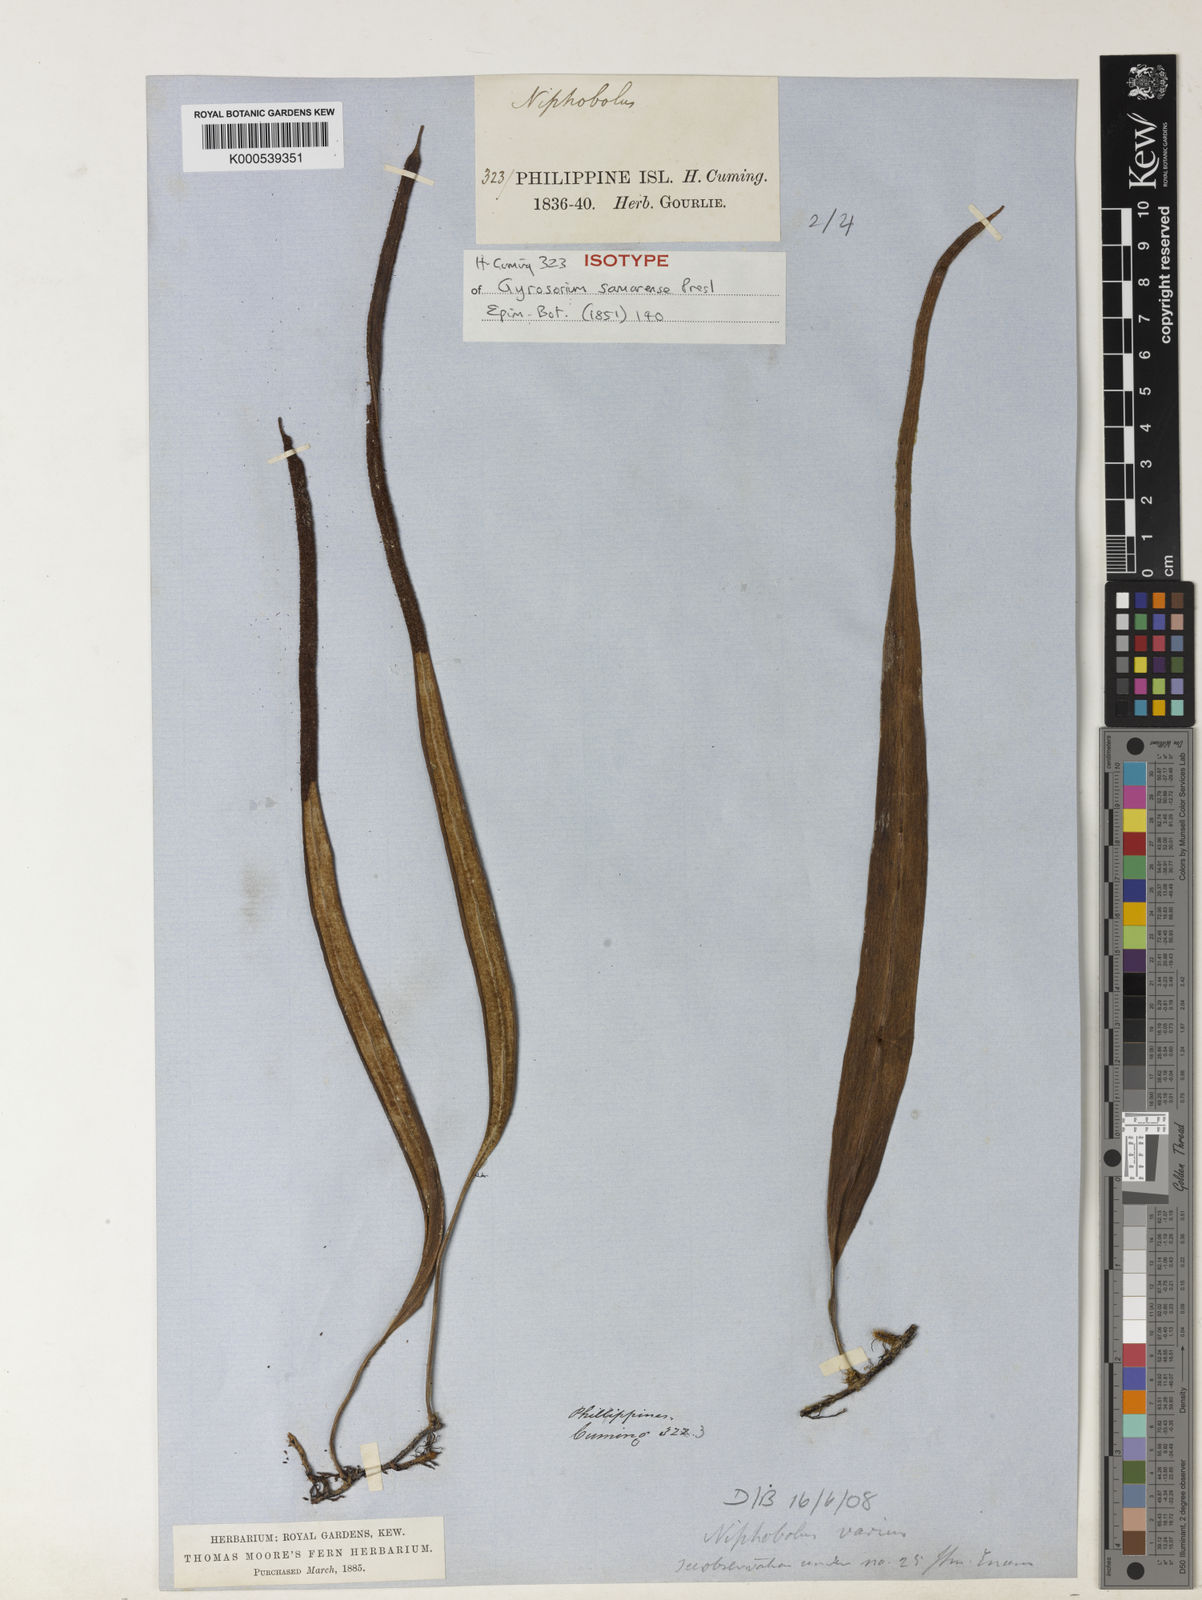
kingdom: Plantae
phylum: Tracheophyta
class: Polypodiopsida
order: Polypodiales
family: Polypodiaceae
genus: Pyrrosia
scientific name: Pyrrosia samarensis
